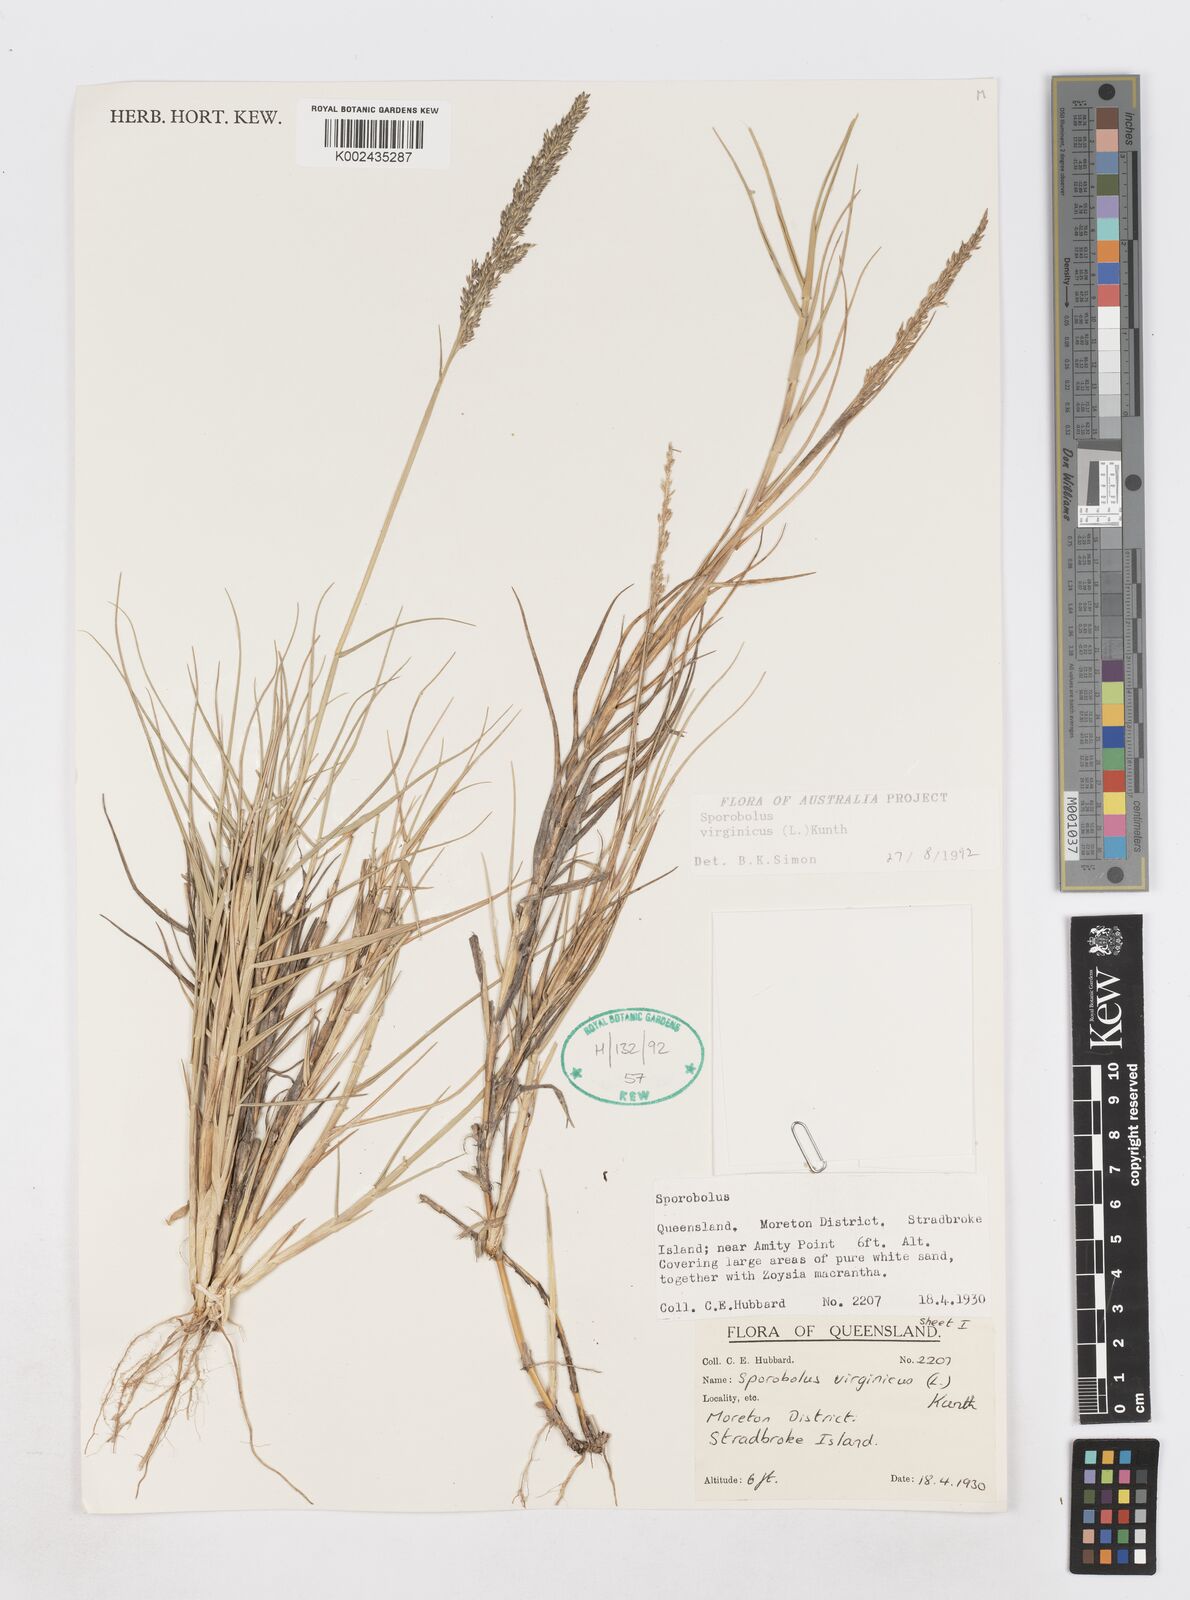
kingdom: Plantae
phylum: Tracheophyta
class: Liliopsida
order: Poales
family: Poaceae
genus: Sporobolus
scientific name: Sporobolus virginicus
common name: Beach dropseed
